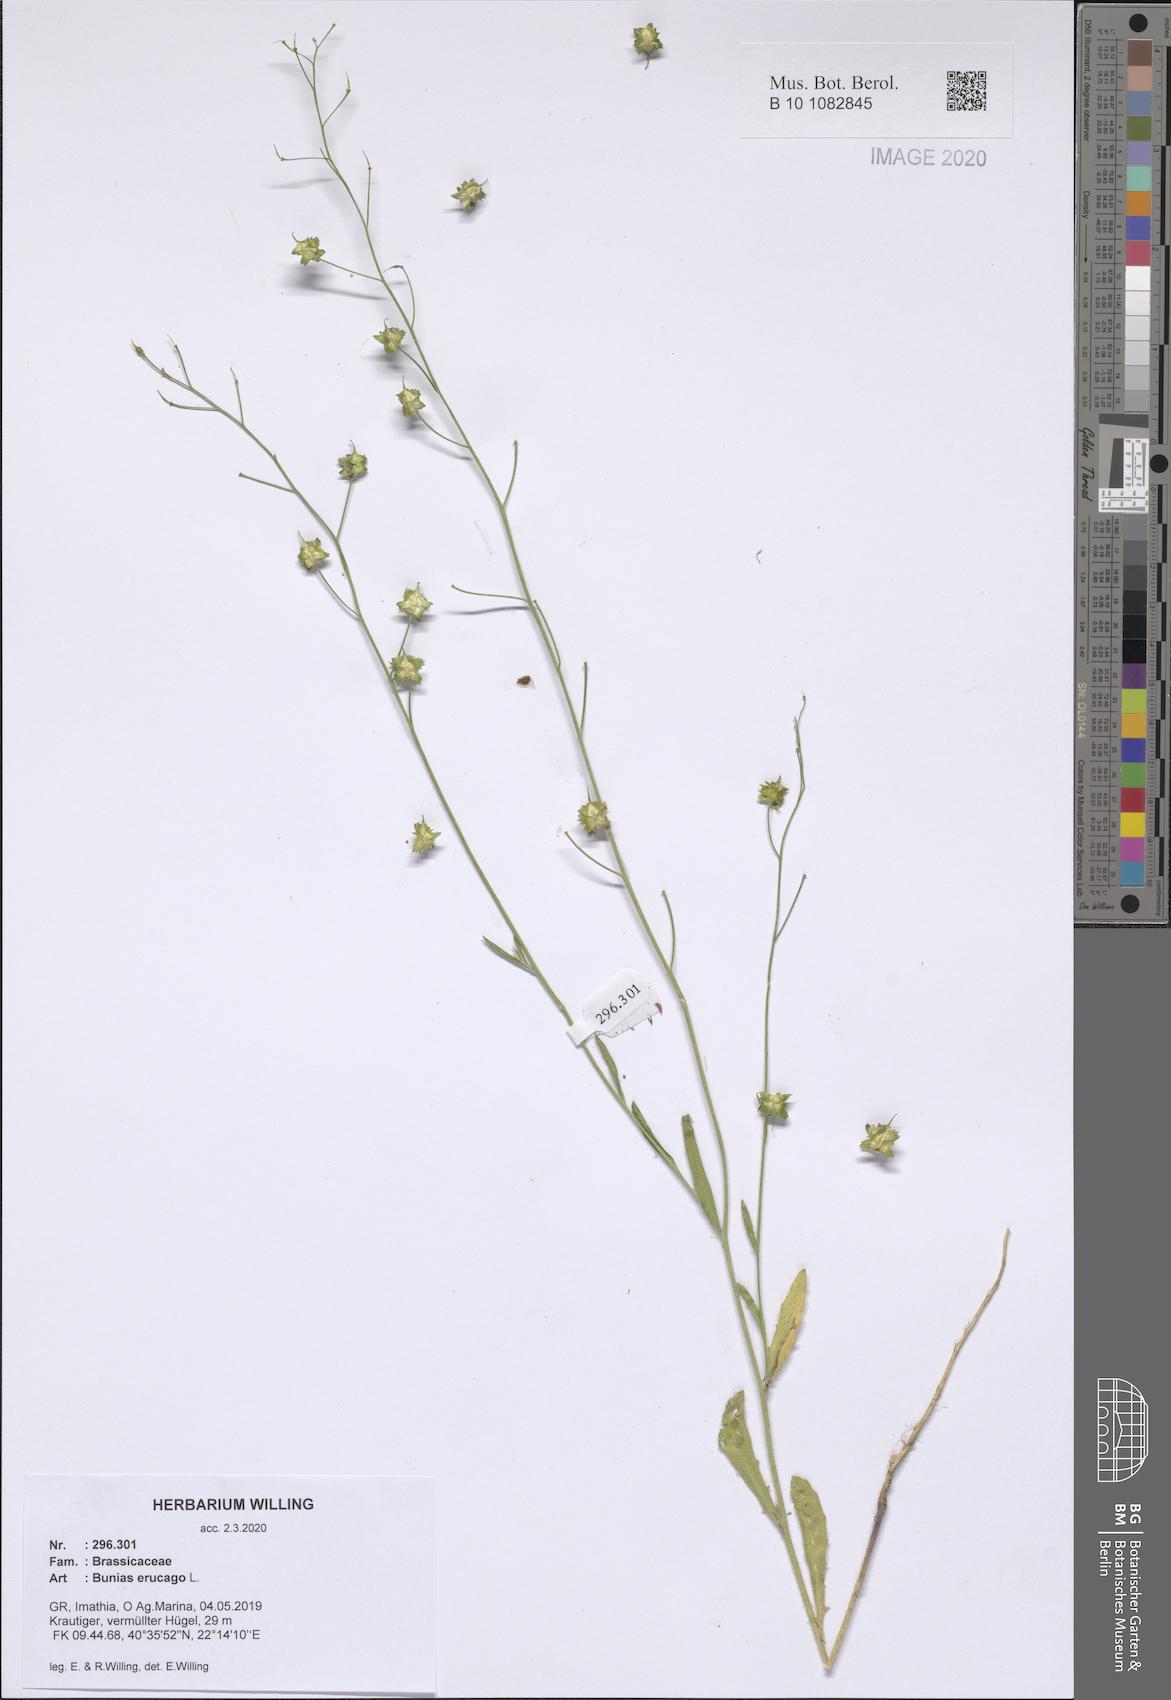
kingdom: Plantae
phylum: Tracheophyta
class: Magnoliopsida
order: Brassicales
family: Brassicaceae
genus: Bunias
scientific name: Bunias erucago
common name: Southern warty-cabbage
